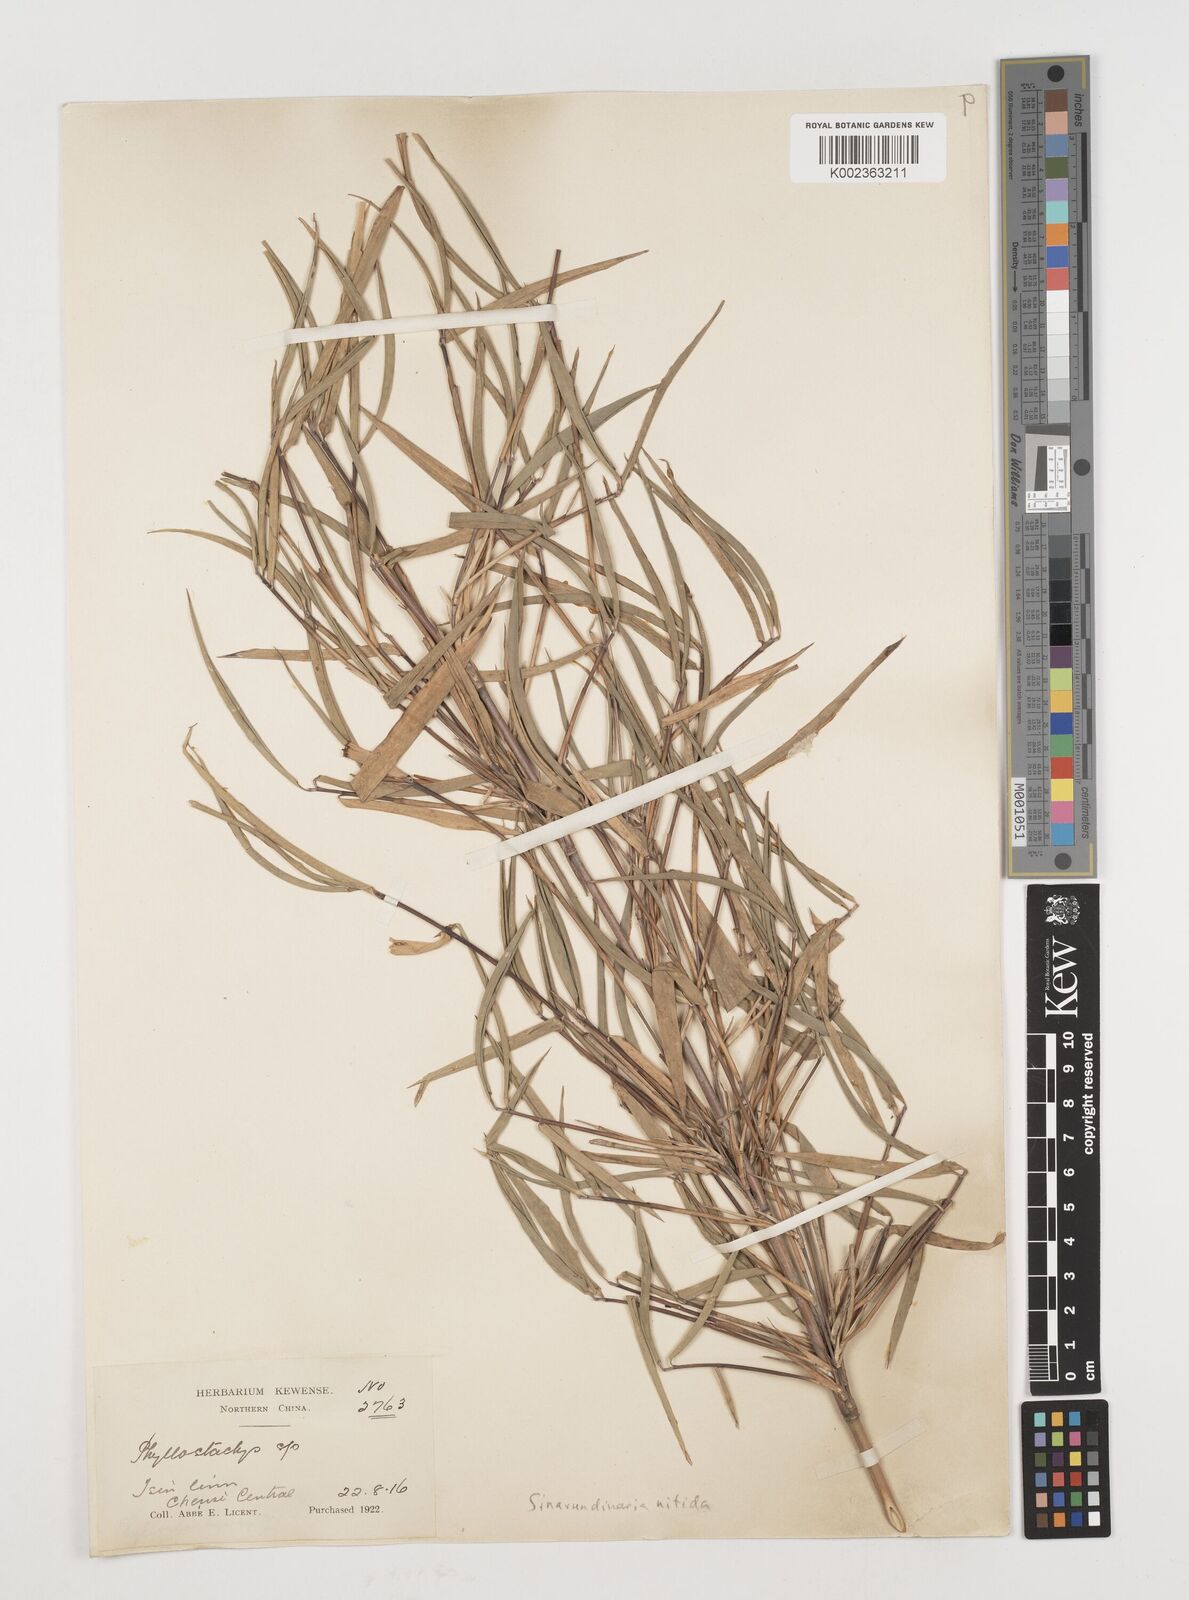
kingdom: Plantae
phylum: Tracheophyta
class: Liliopsida
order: Poales
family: Poaceae
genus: Fargesia
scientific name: Fargesia nitida ex
